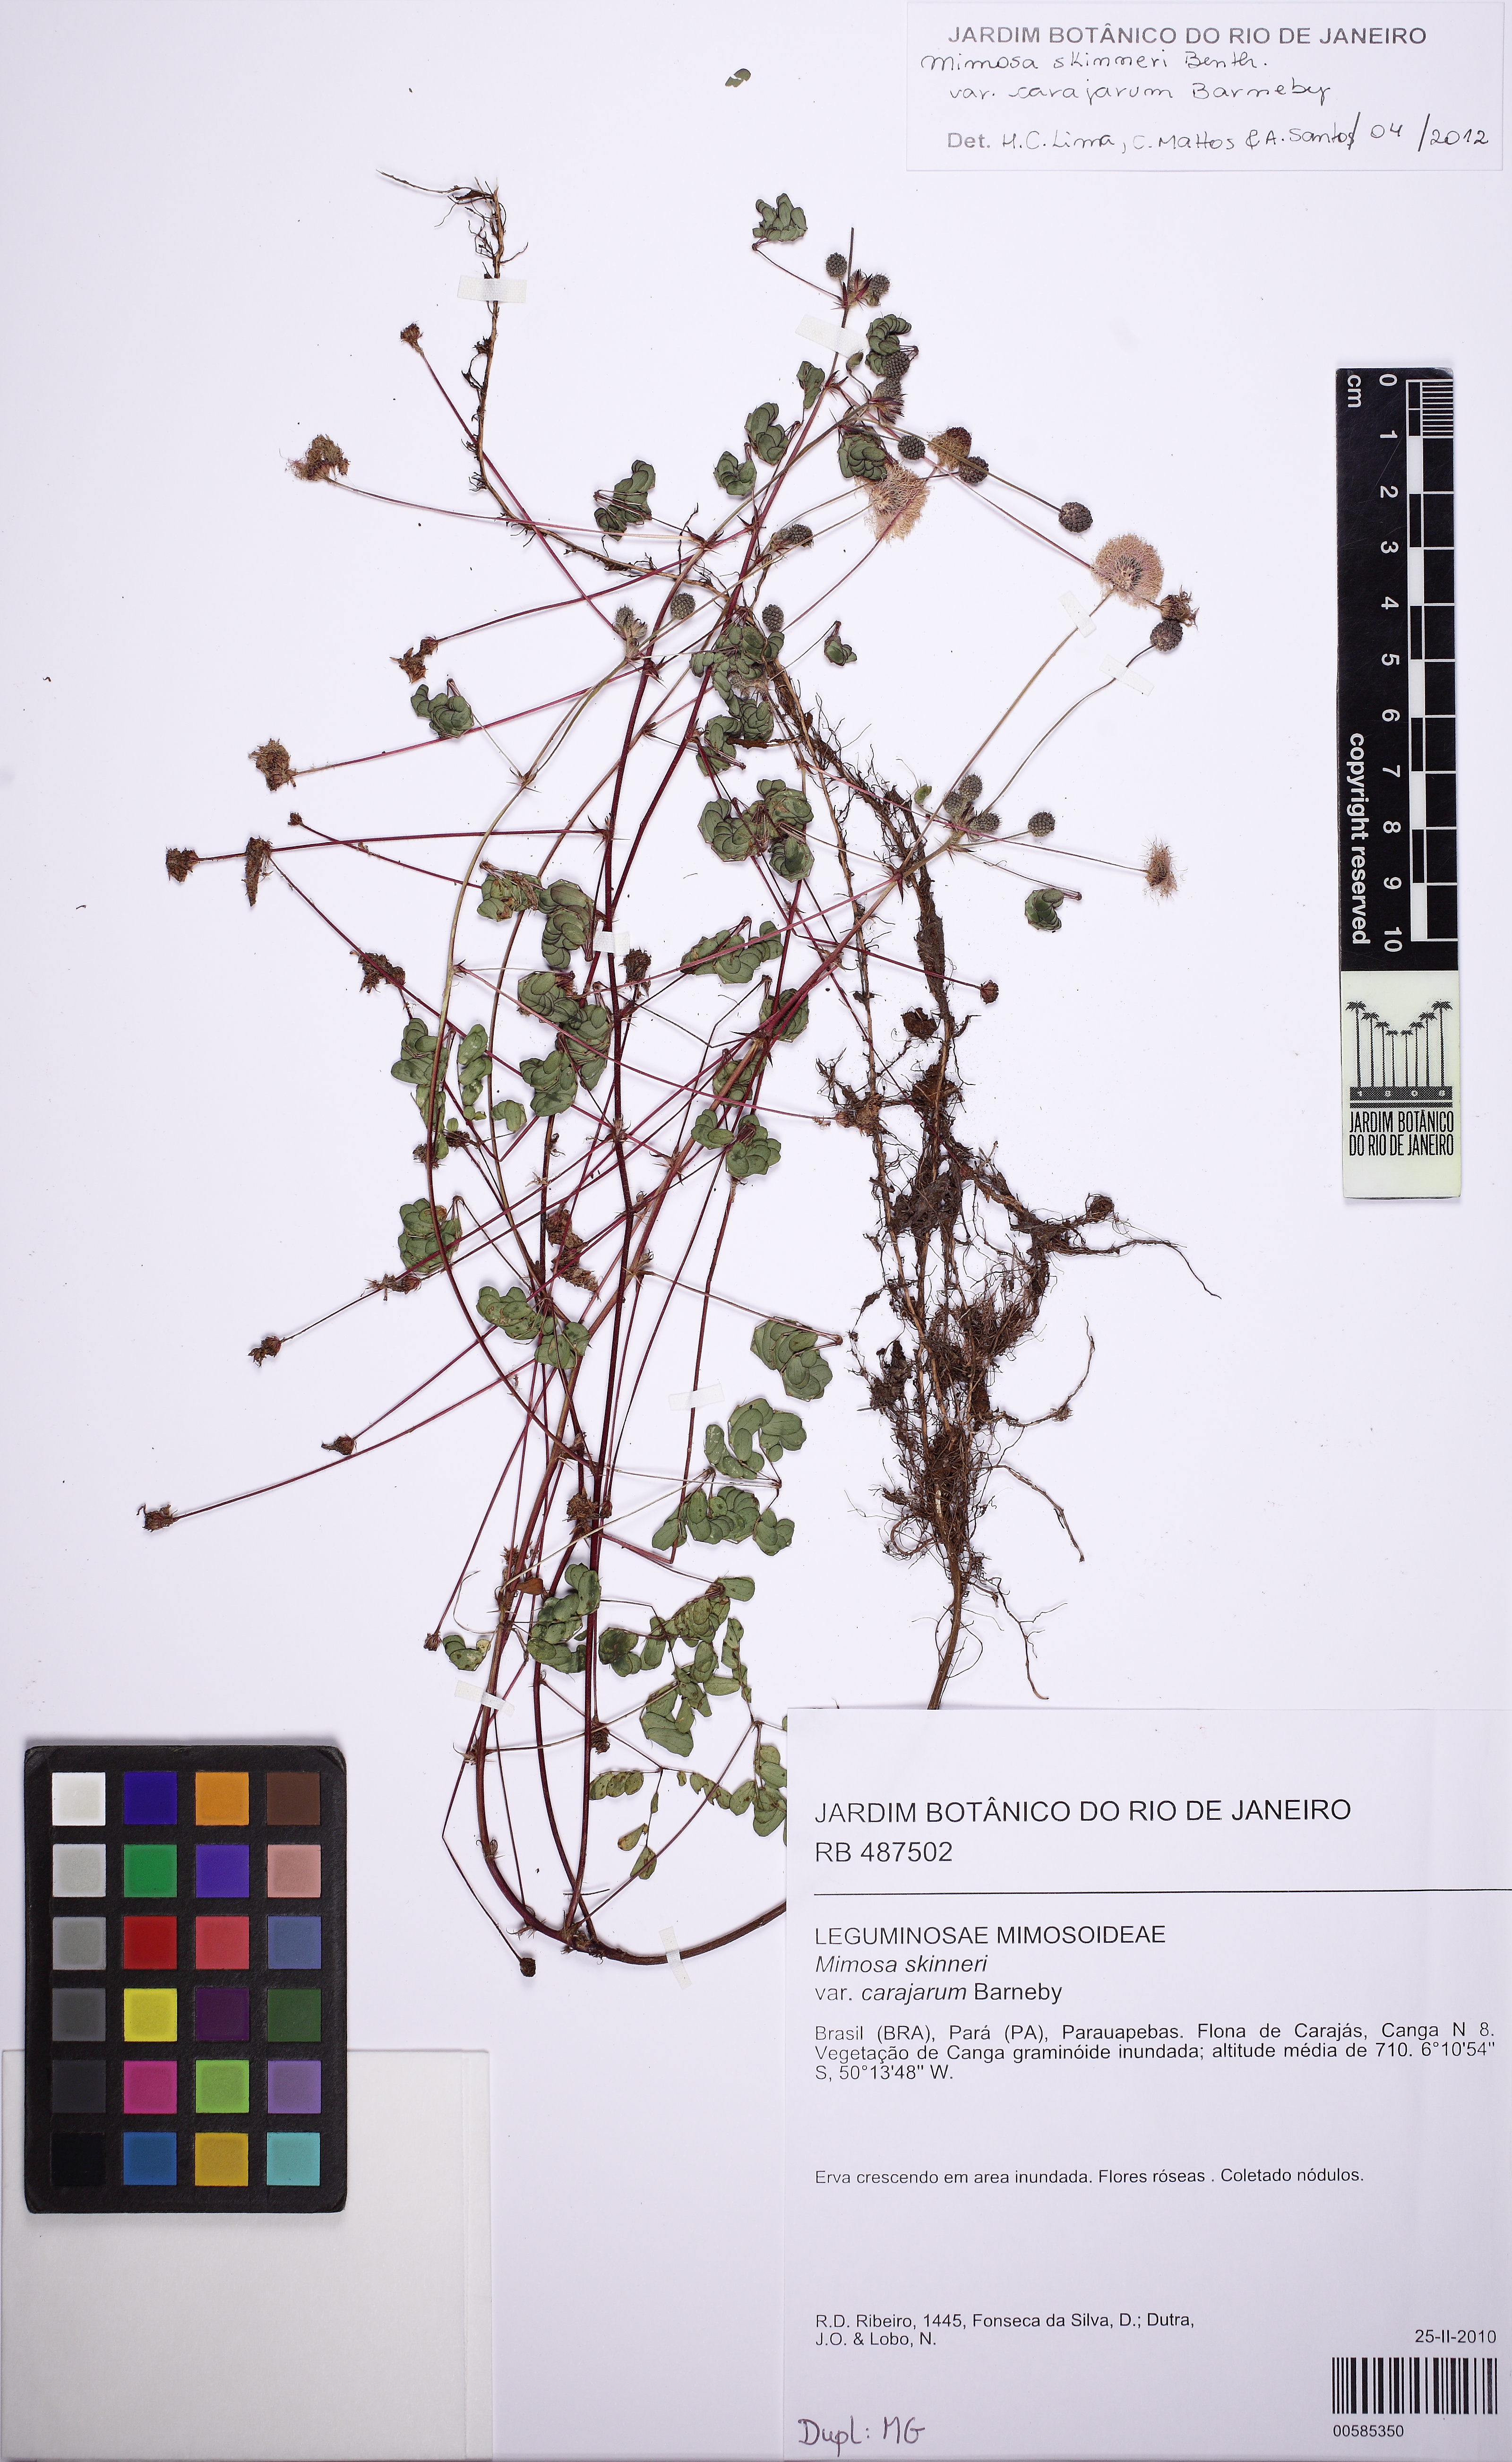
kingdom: Plantae
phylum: Tracheophyta
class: Magnoliopsida
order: Fabales
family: Fabaceae
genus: Mimosa
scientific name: Mimosa skinneri
